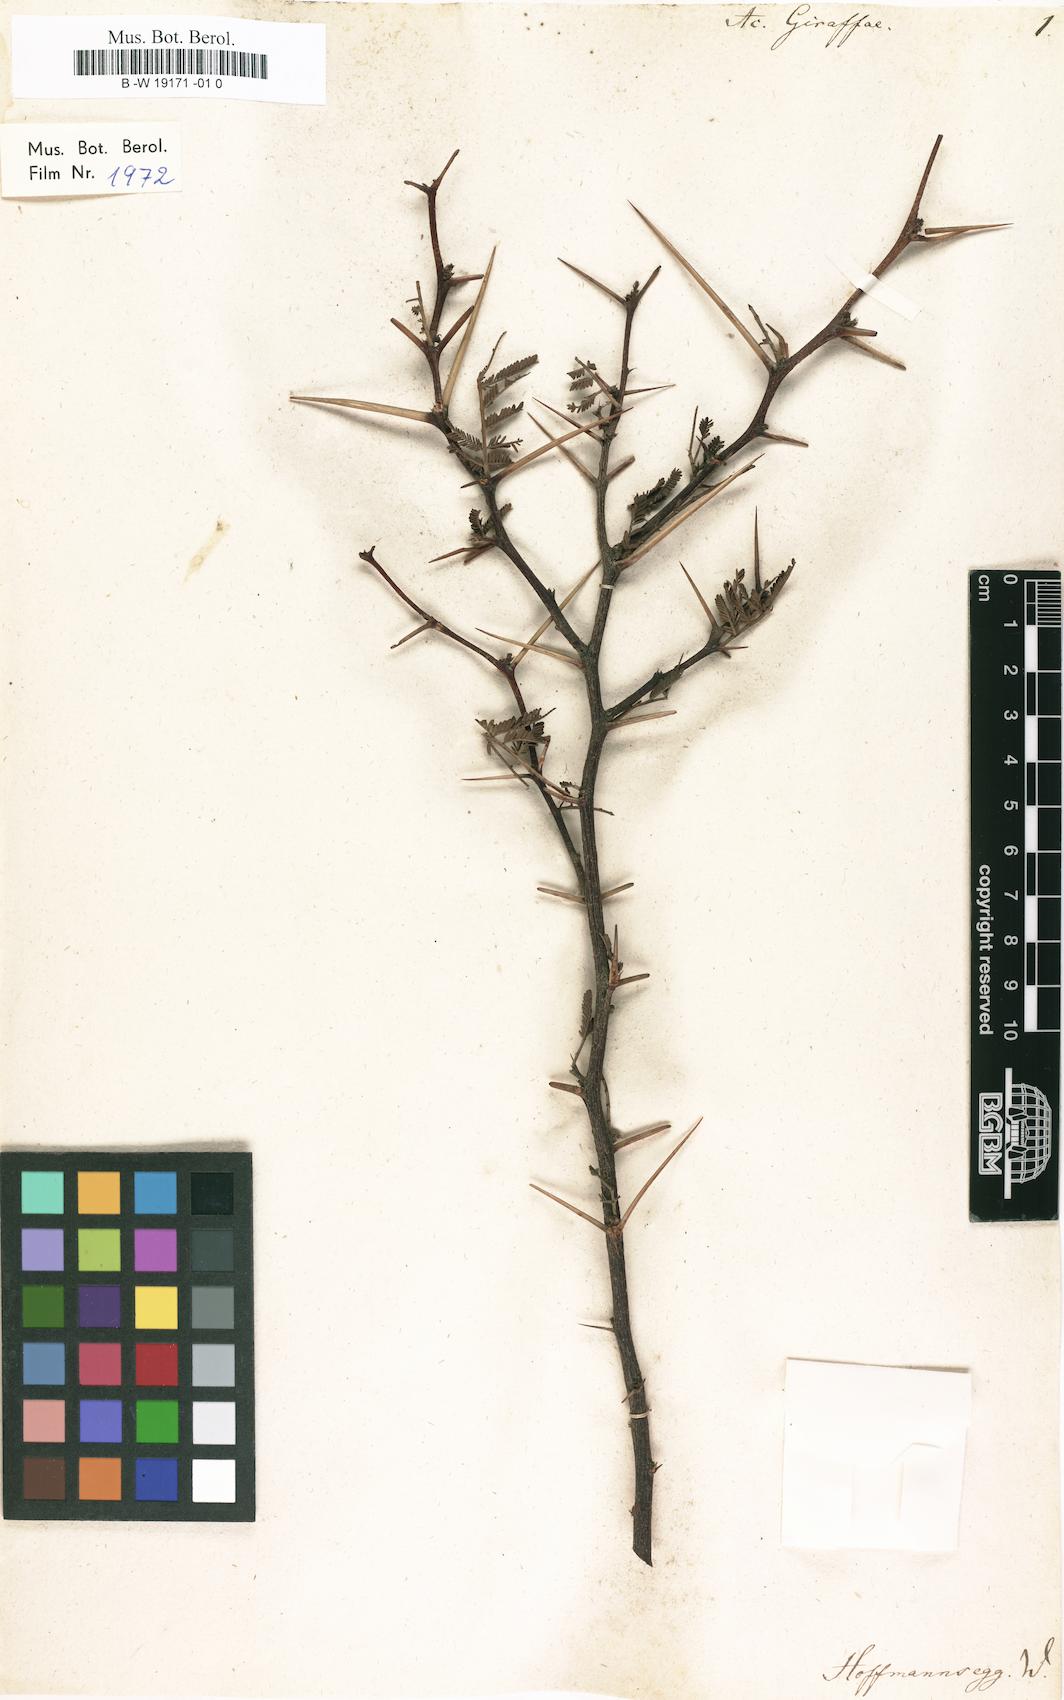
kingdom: Plantae
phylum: Tracheophyta
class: Magnoliopsida
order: Fabales
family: Fabaceae
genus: Vachellia
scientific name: Vachellia erioloba
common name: Camel thorn
